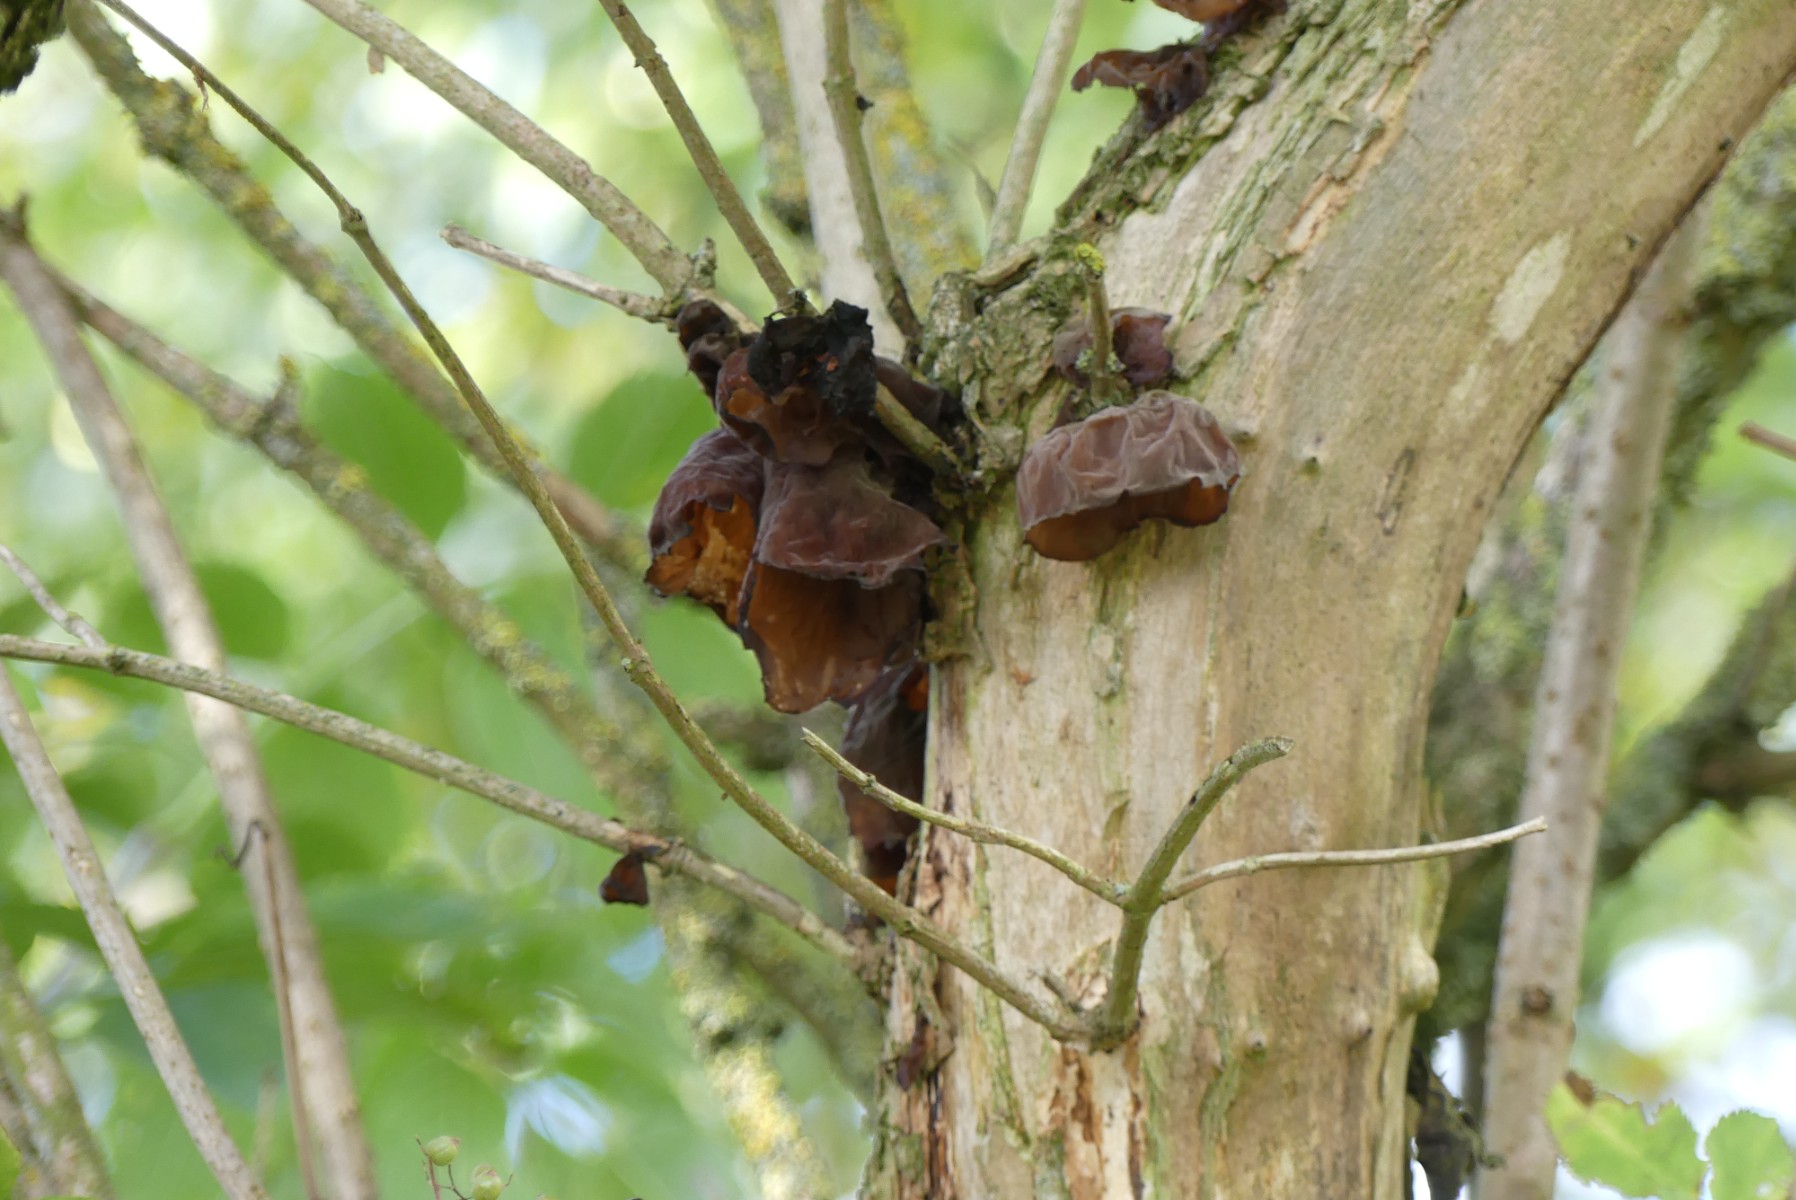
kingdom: Fungi
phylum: Basidiomycota
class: Agaricomycetes
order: Auriculariales
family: Auriculariaceae
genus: Auricularia
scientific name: Auricularia auricula-judae
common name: almindelig judasøre
